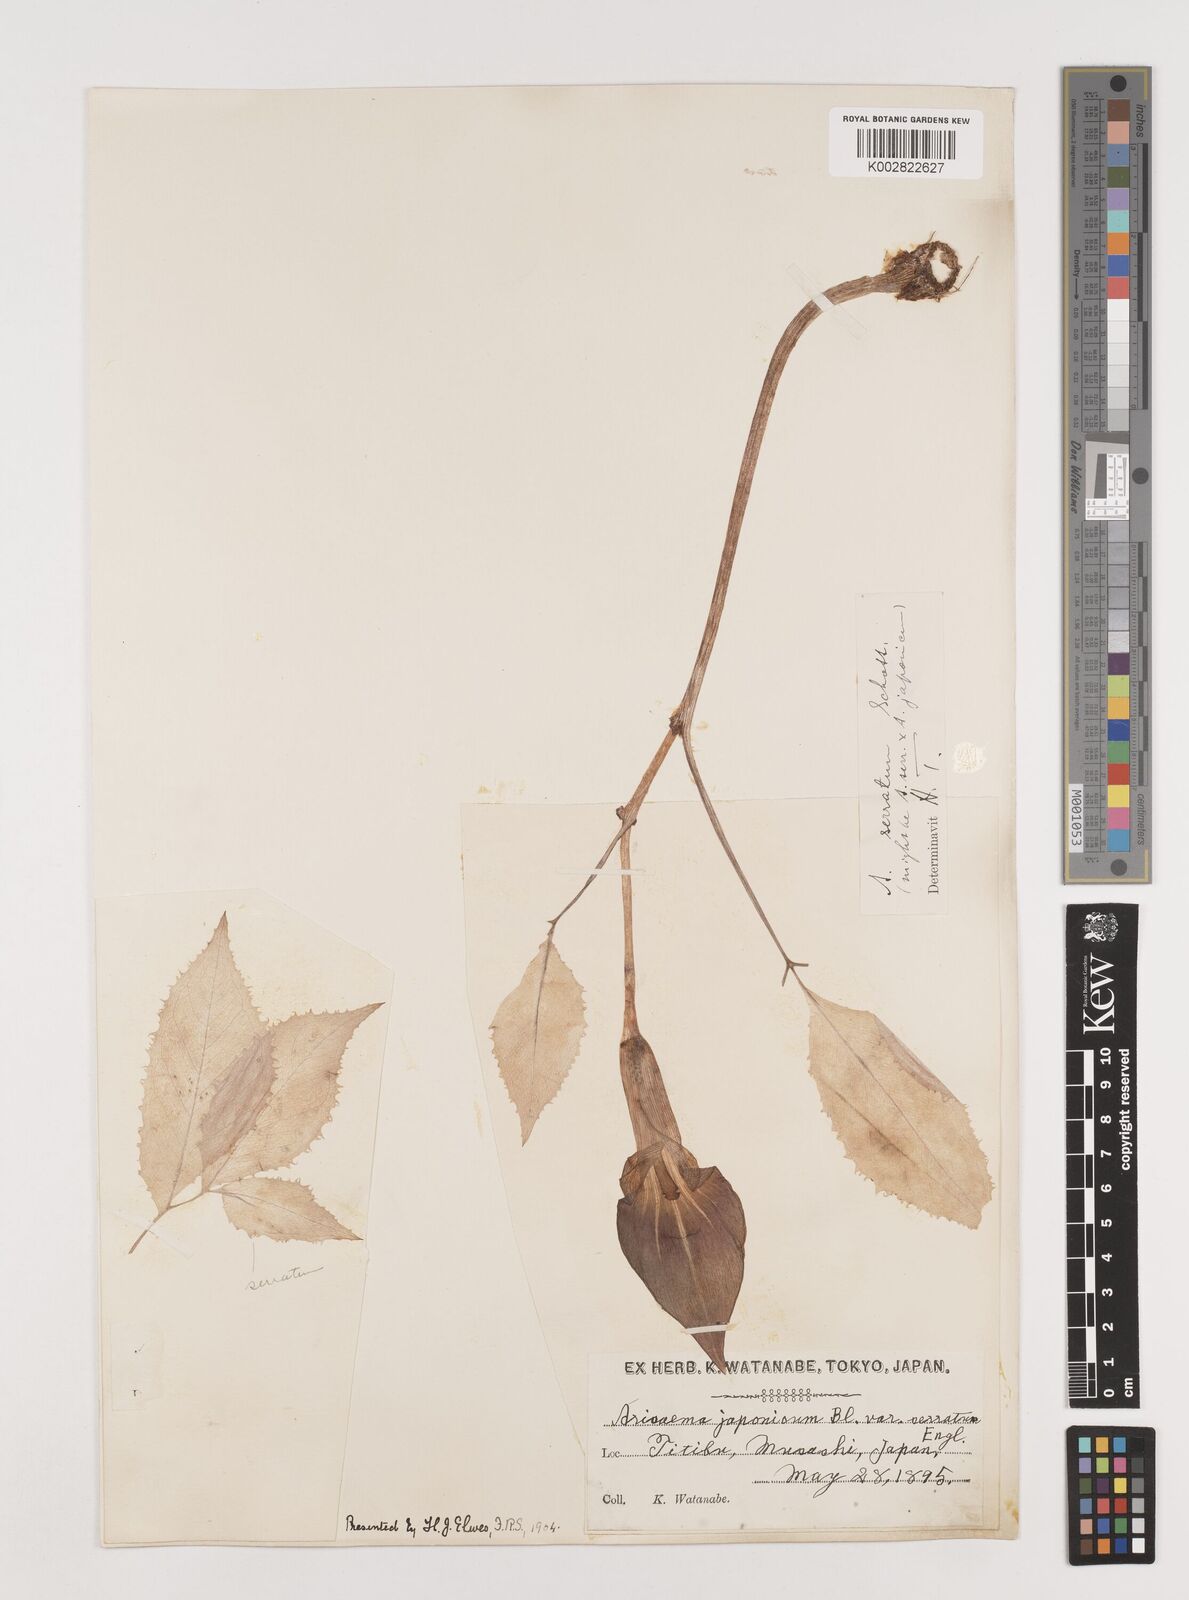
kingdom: Plantae
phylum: Tracheophyta
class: Liliopsida
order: Alismatales
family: Araceae
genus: Arisaema
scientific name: Arisaema serratum
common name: Japanese arisaema
